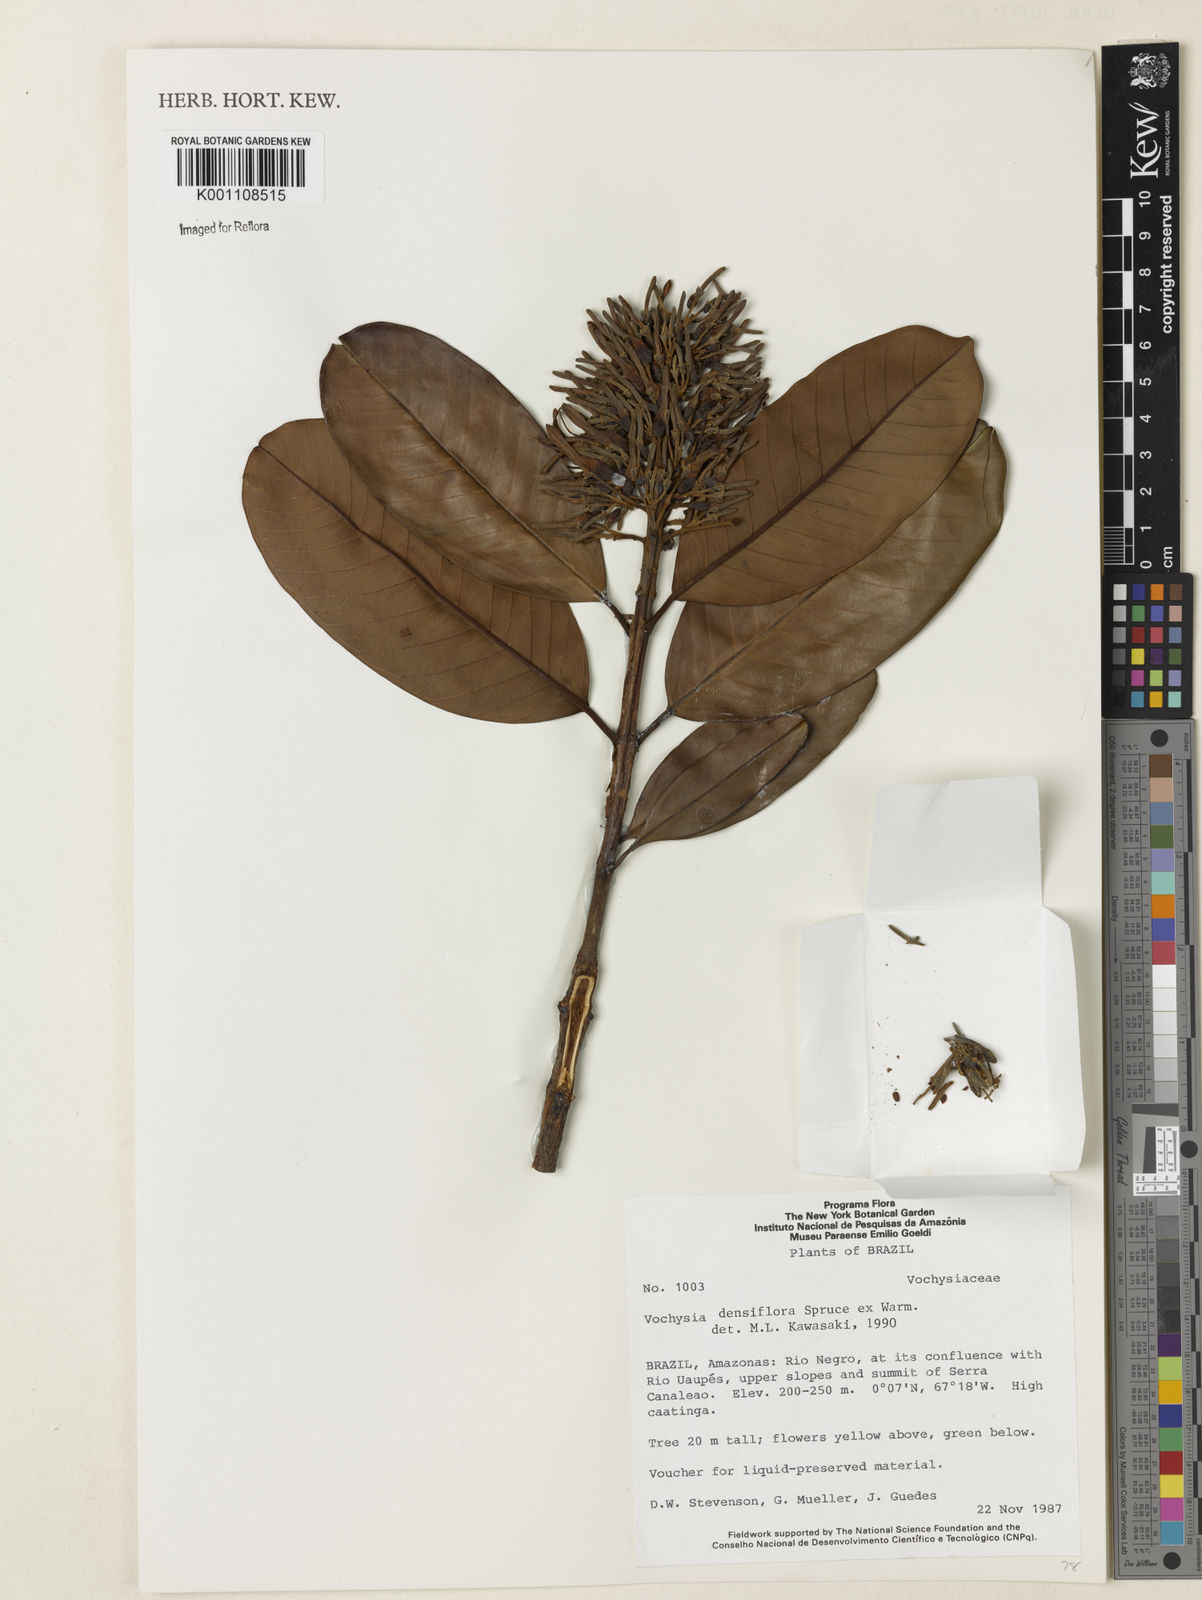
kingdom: Plantae
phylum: Tracheophyta
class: Magnoliopsida
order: Myrtales
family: Vochysiaceae
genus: Vochysia
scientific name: Vochysia
